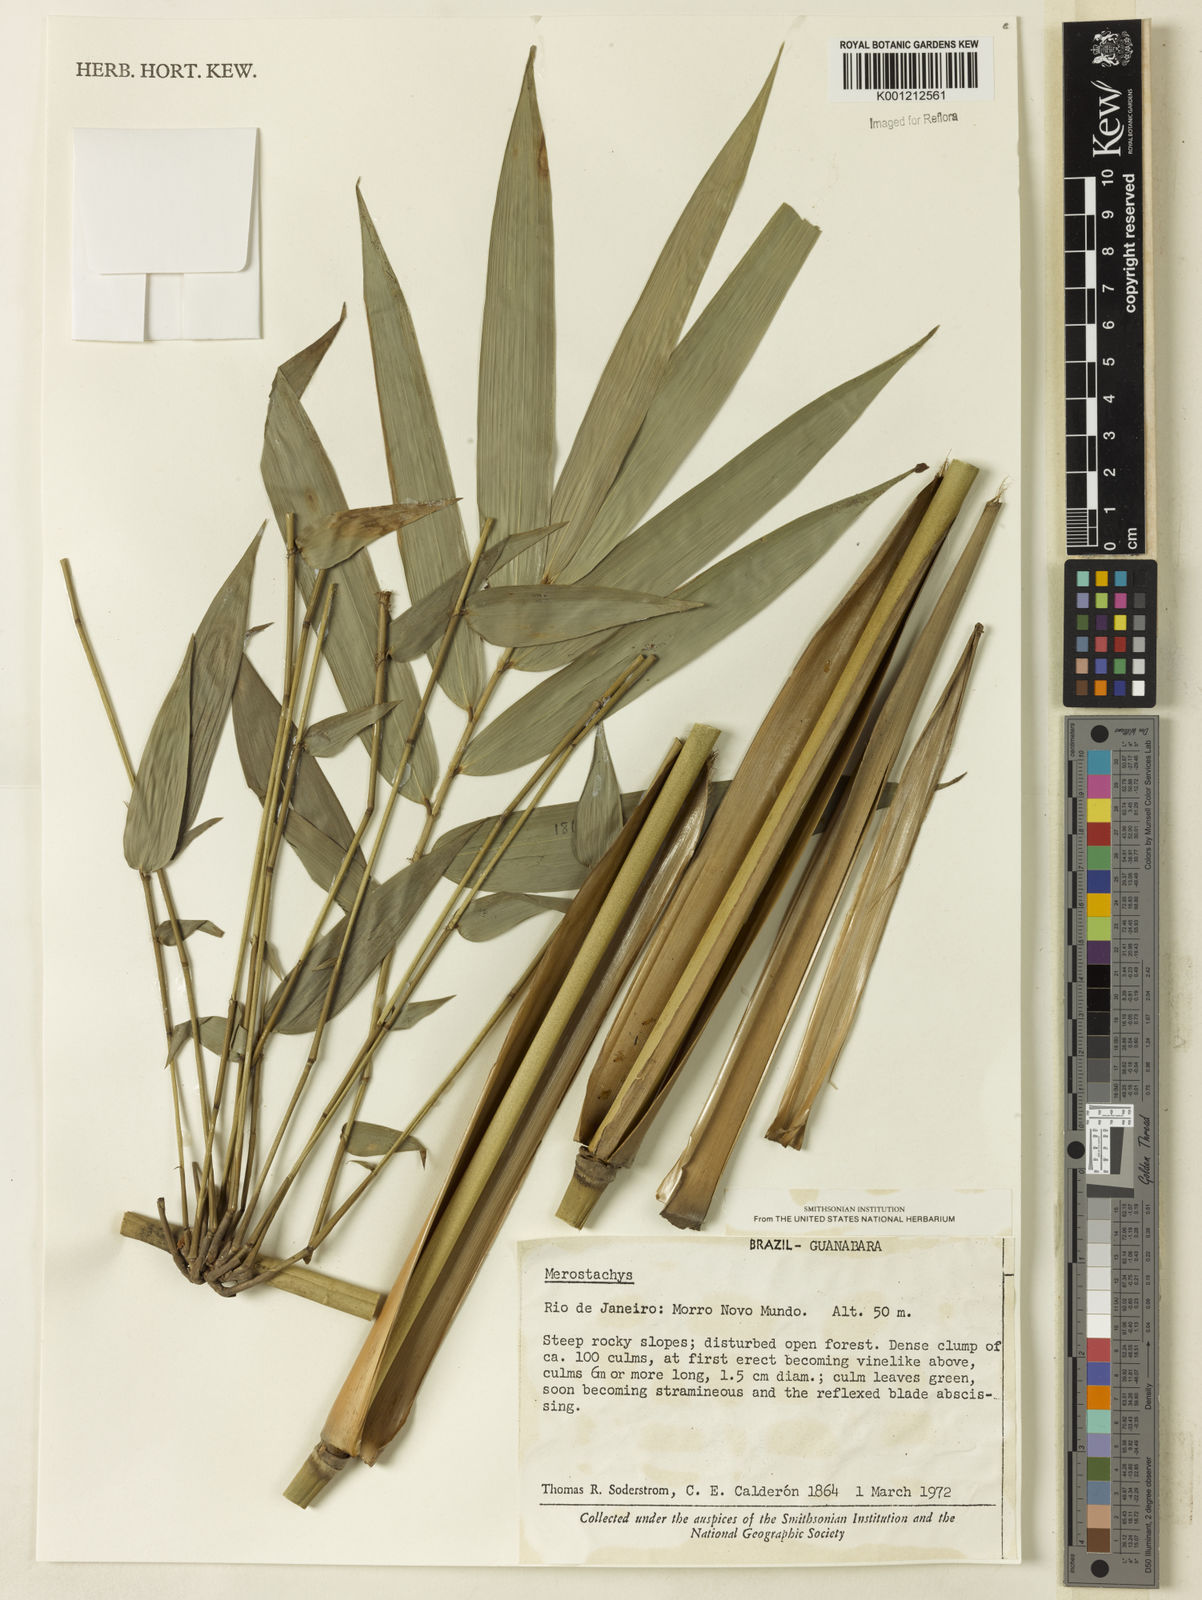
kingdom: Plantae
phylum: Tracheophyta
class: Liliopsida
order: Poales
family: Poaceae
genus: Merostachys
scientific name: Merostachys
